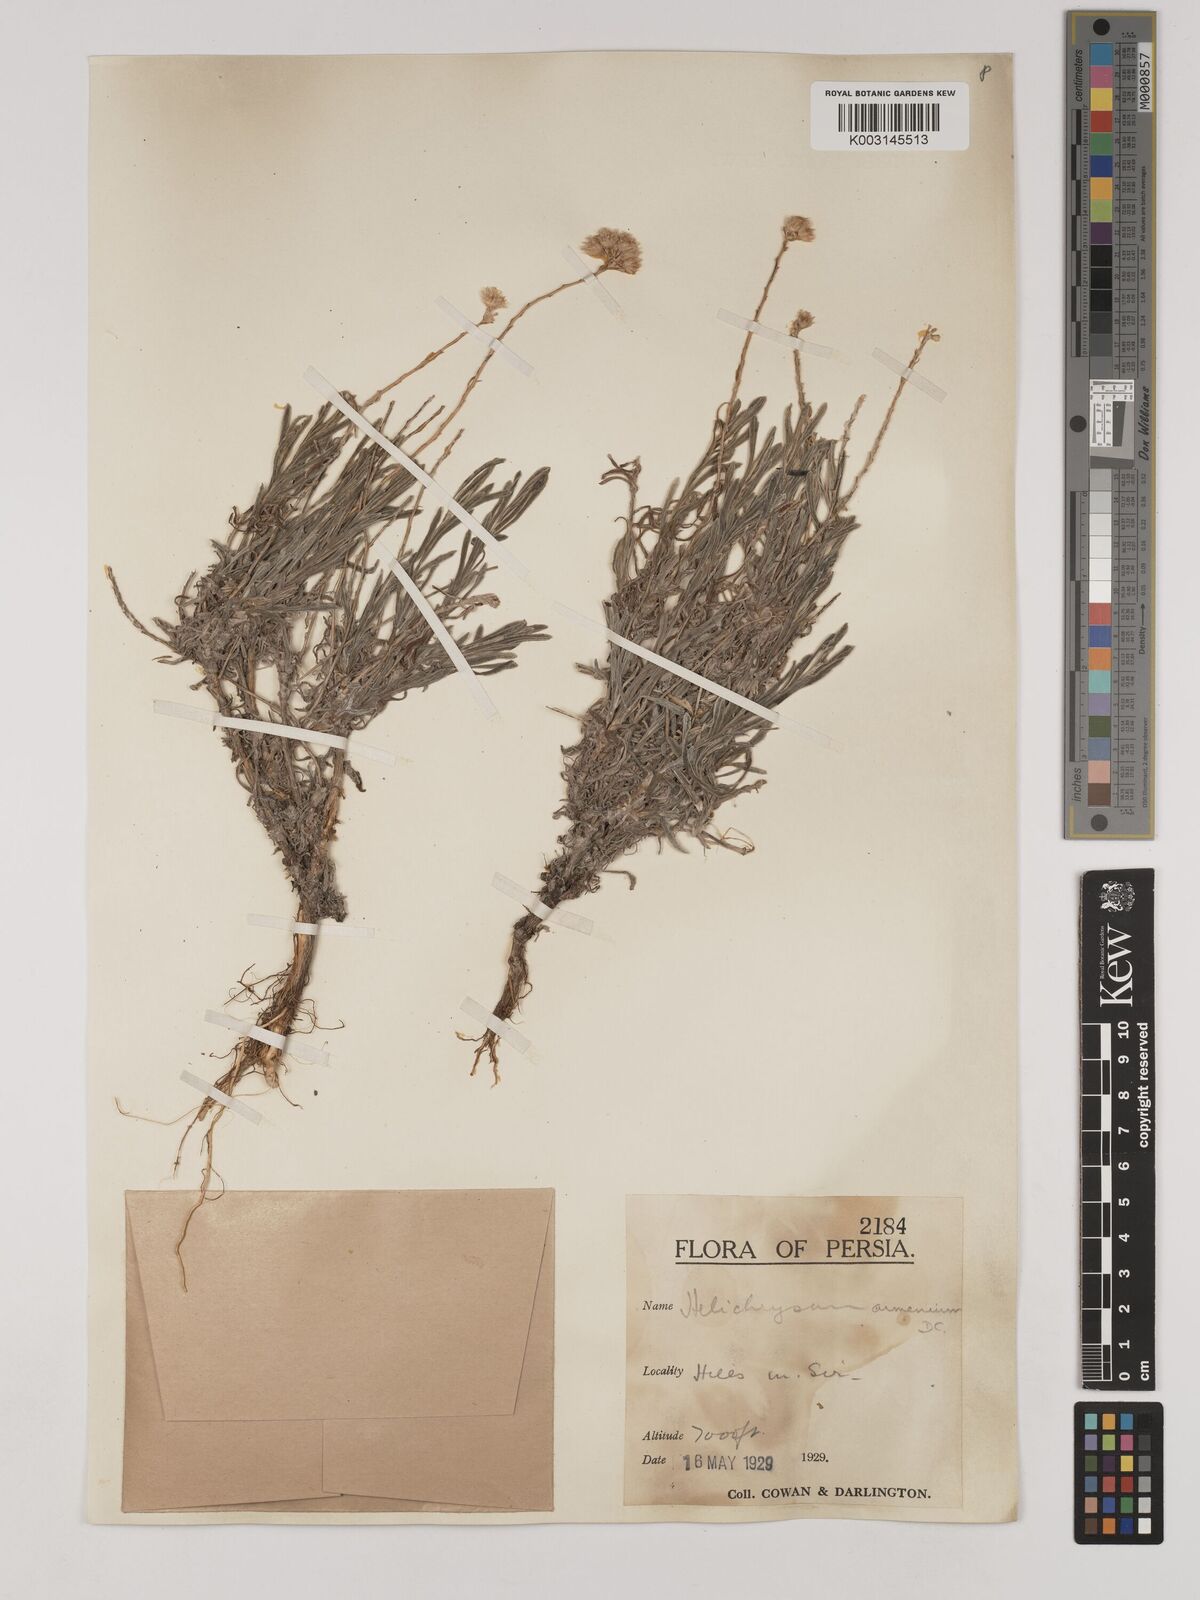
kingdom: Plantae
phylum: Tracheophyta
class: Magnoliopsida
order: Asterales
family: Asteraceae
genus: Helichrysum
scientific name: Helichrysum armenium
